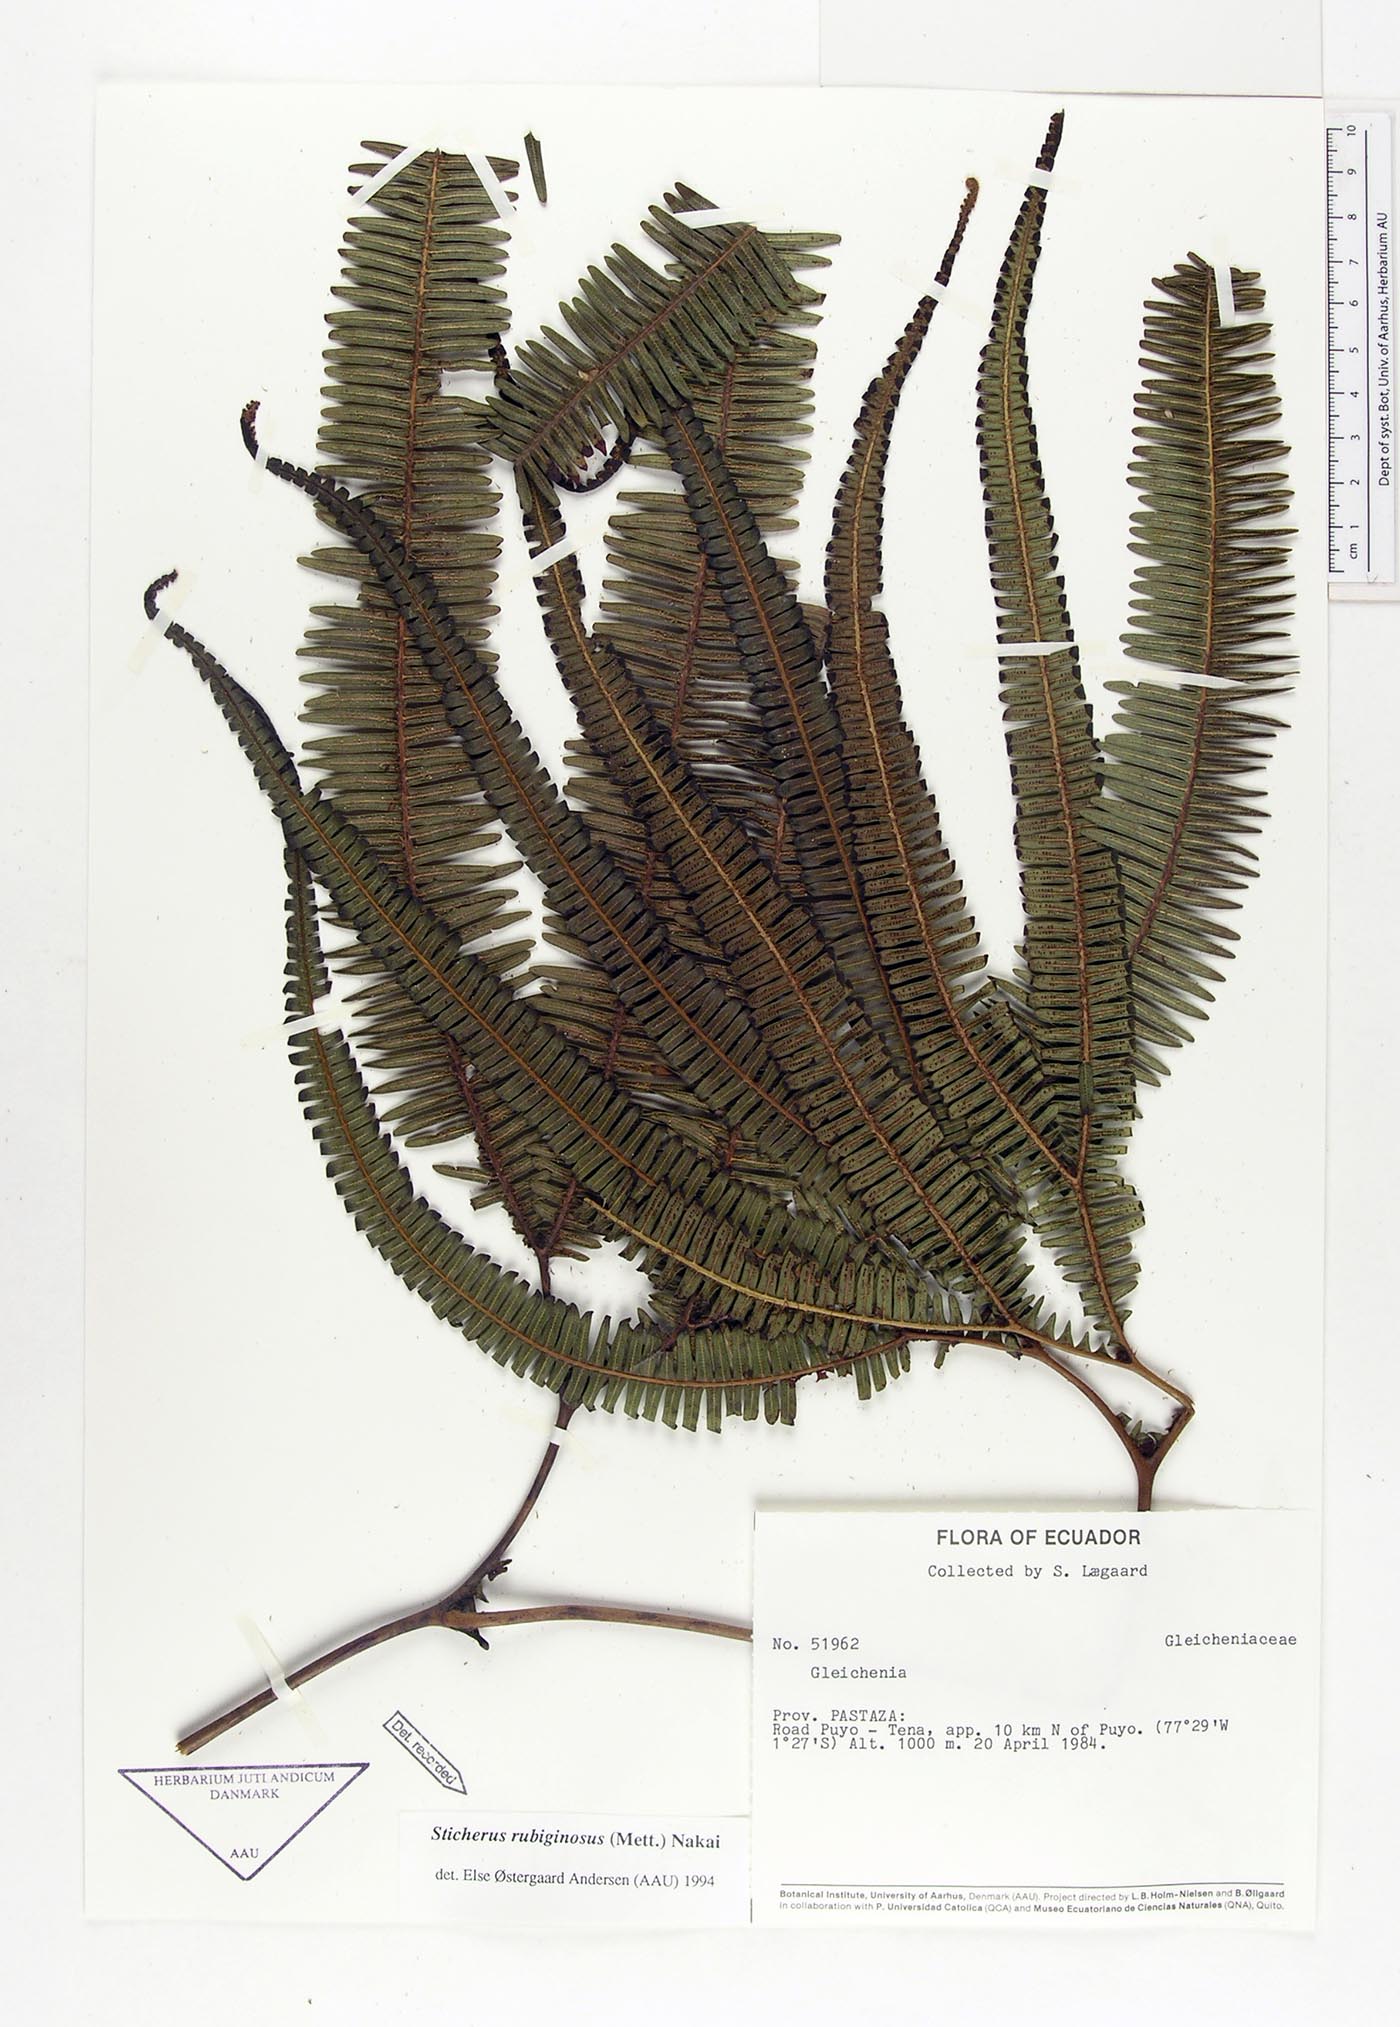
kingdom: Plantae
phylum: Tracheophyta
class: Polypodiopsida
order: Gleicheniales
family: Gleicheniaceae
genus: Sticherus
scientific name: Sticherus rubiginosus
